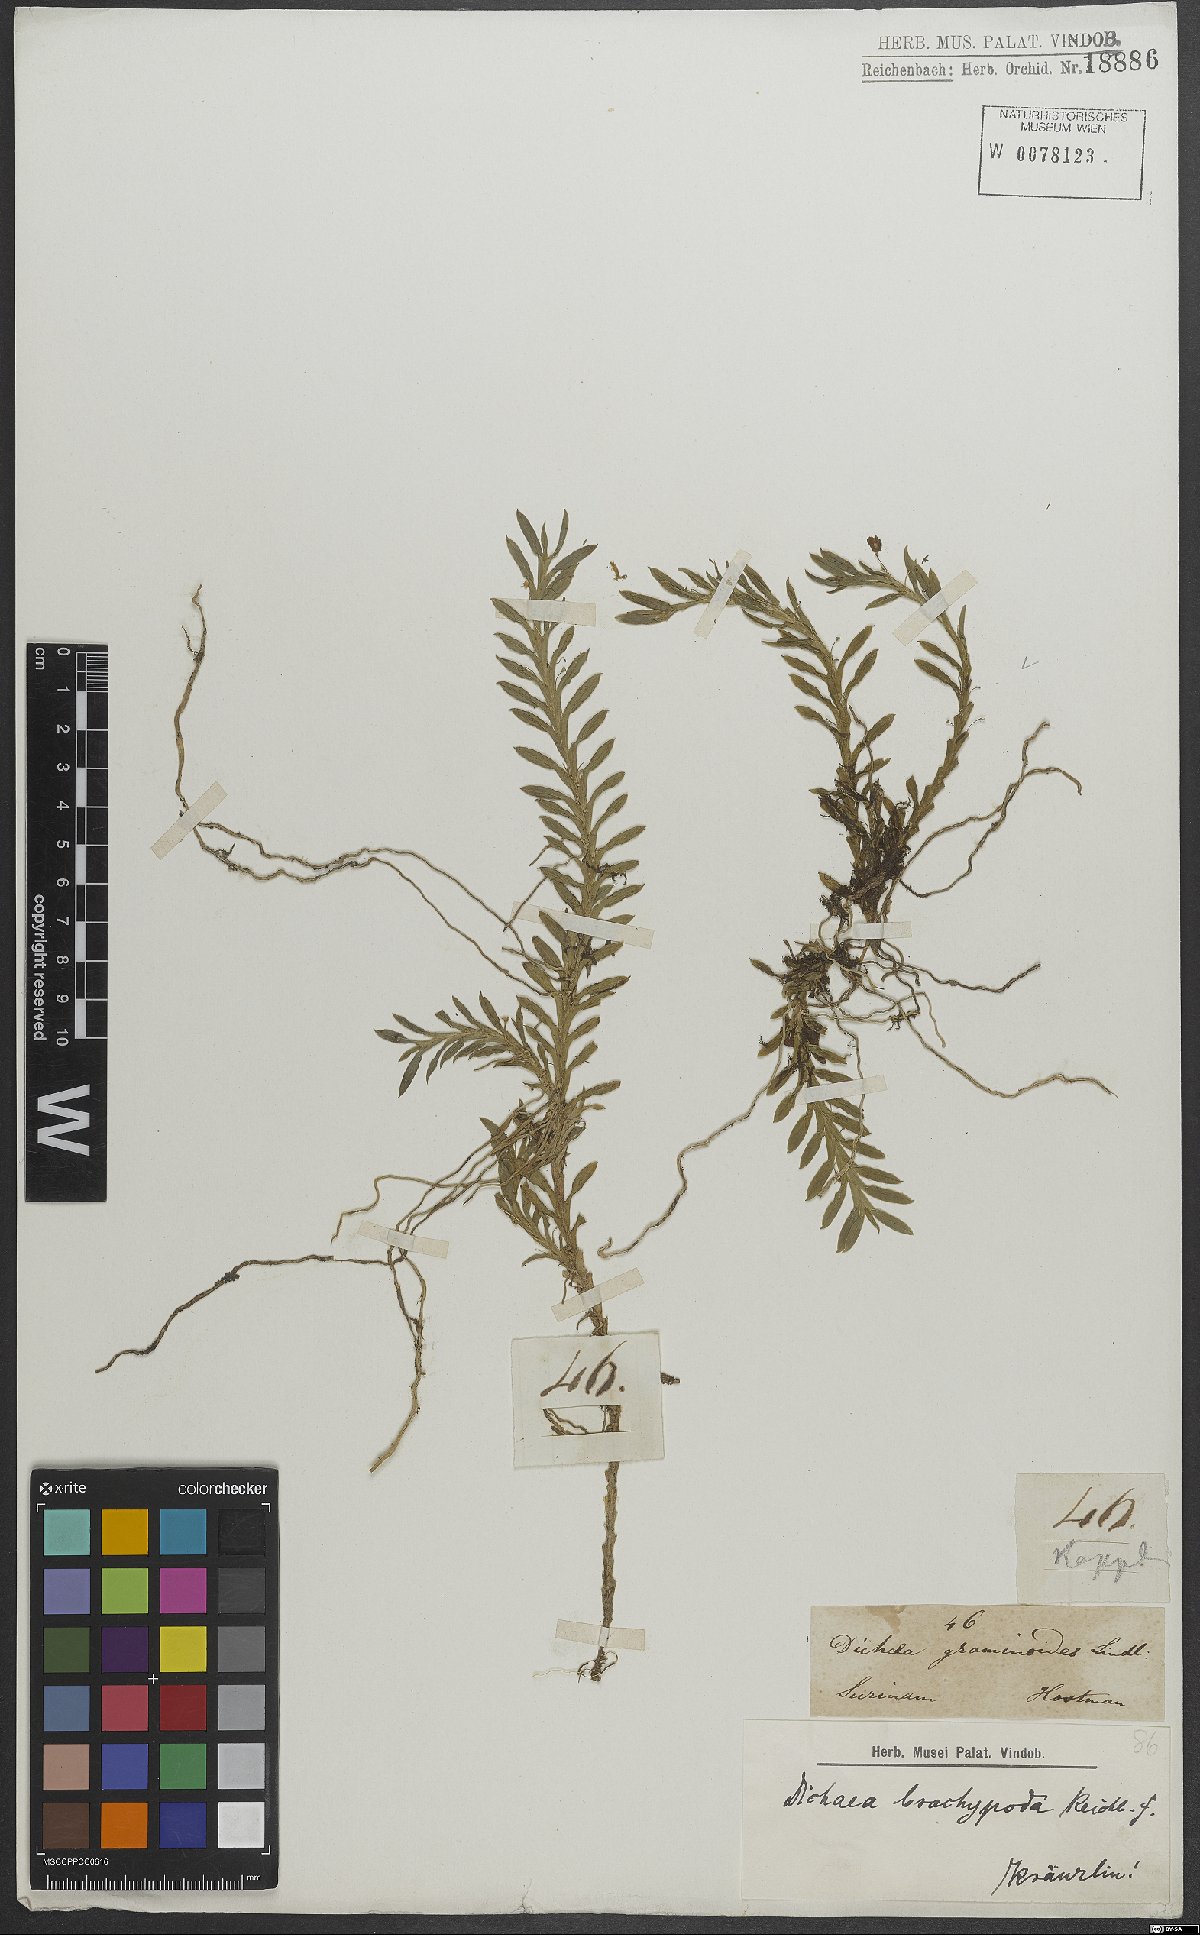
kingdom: Plantae
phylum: Tracheophyta
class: Liliopsida
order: Asparagales
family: Orchidaceae
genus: Dichaea
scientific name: Dichaea panamensis
